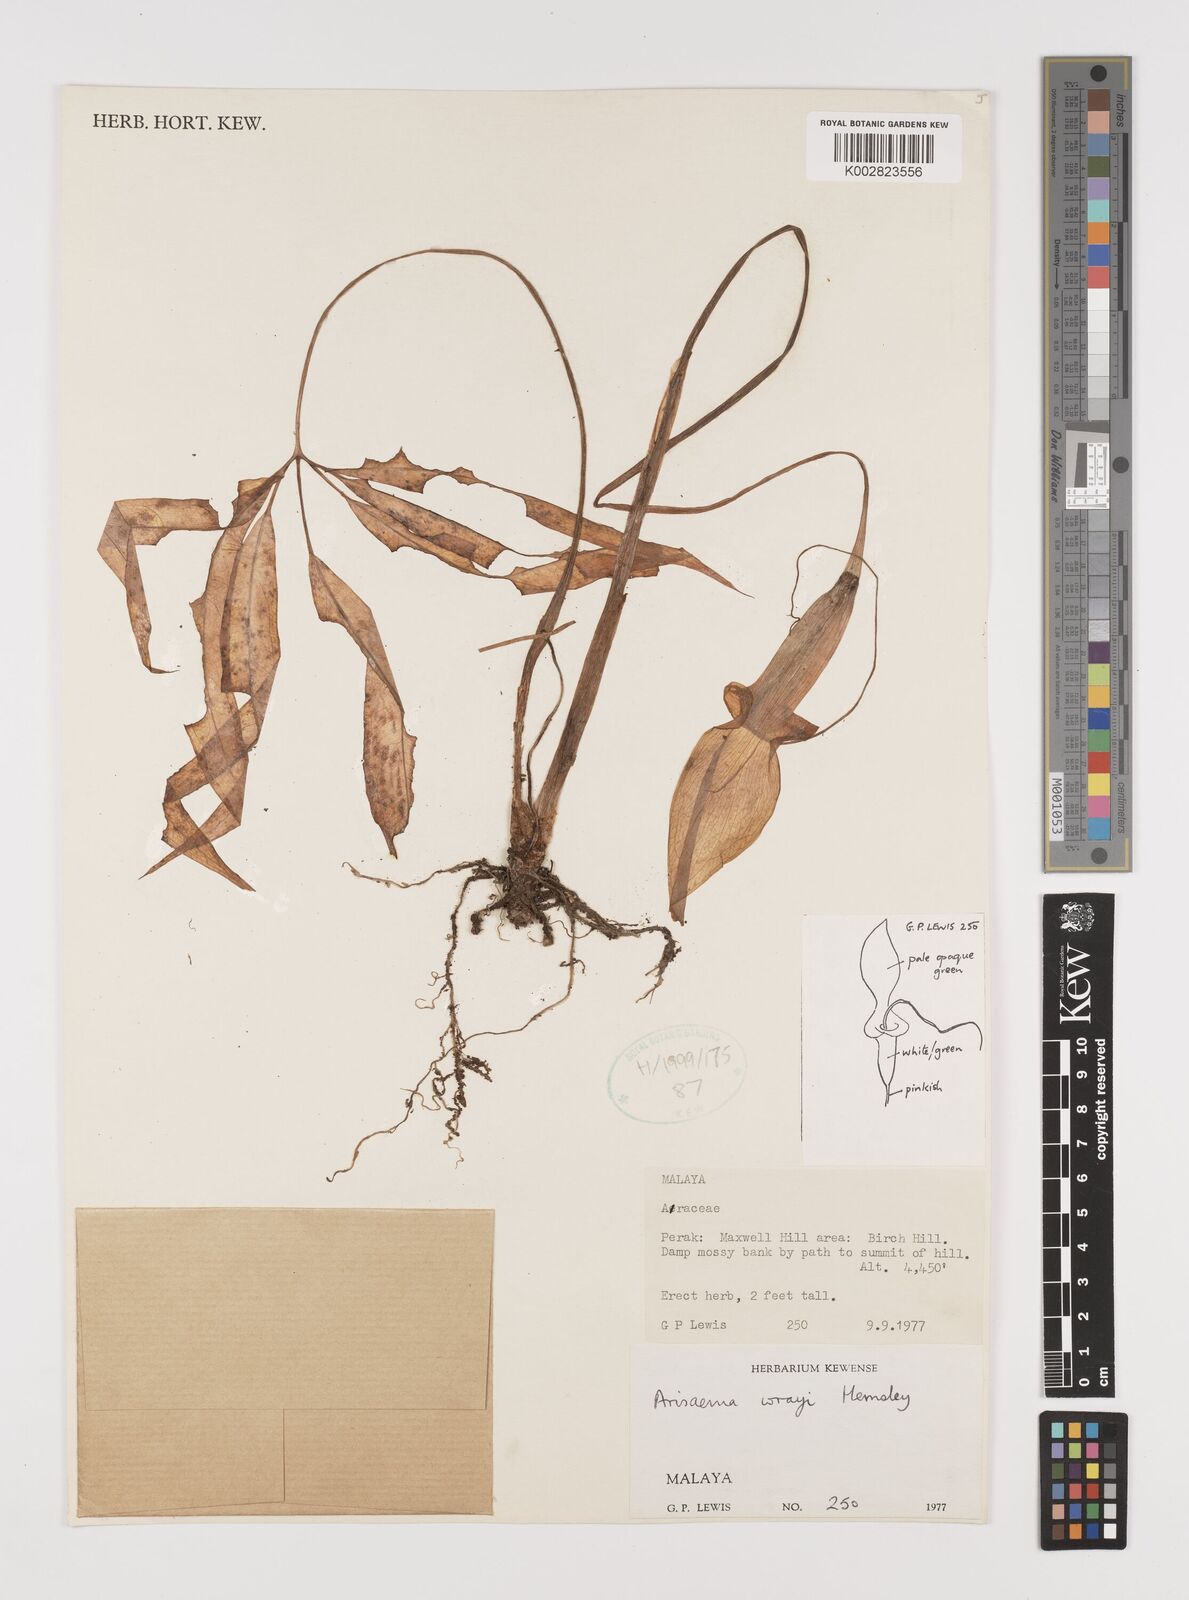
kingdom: Plantae
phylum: Tracheophyta
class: Liliopsida
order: Alismatales
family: Araceae
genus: Arisaema
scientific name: Arisaema wrayi
